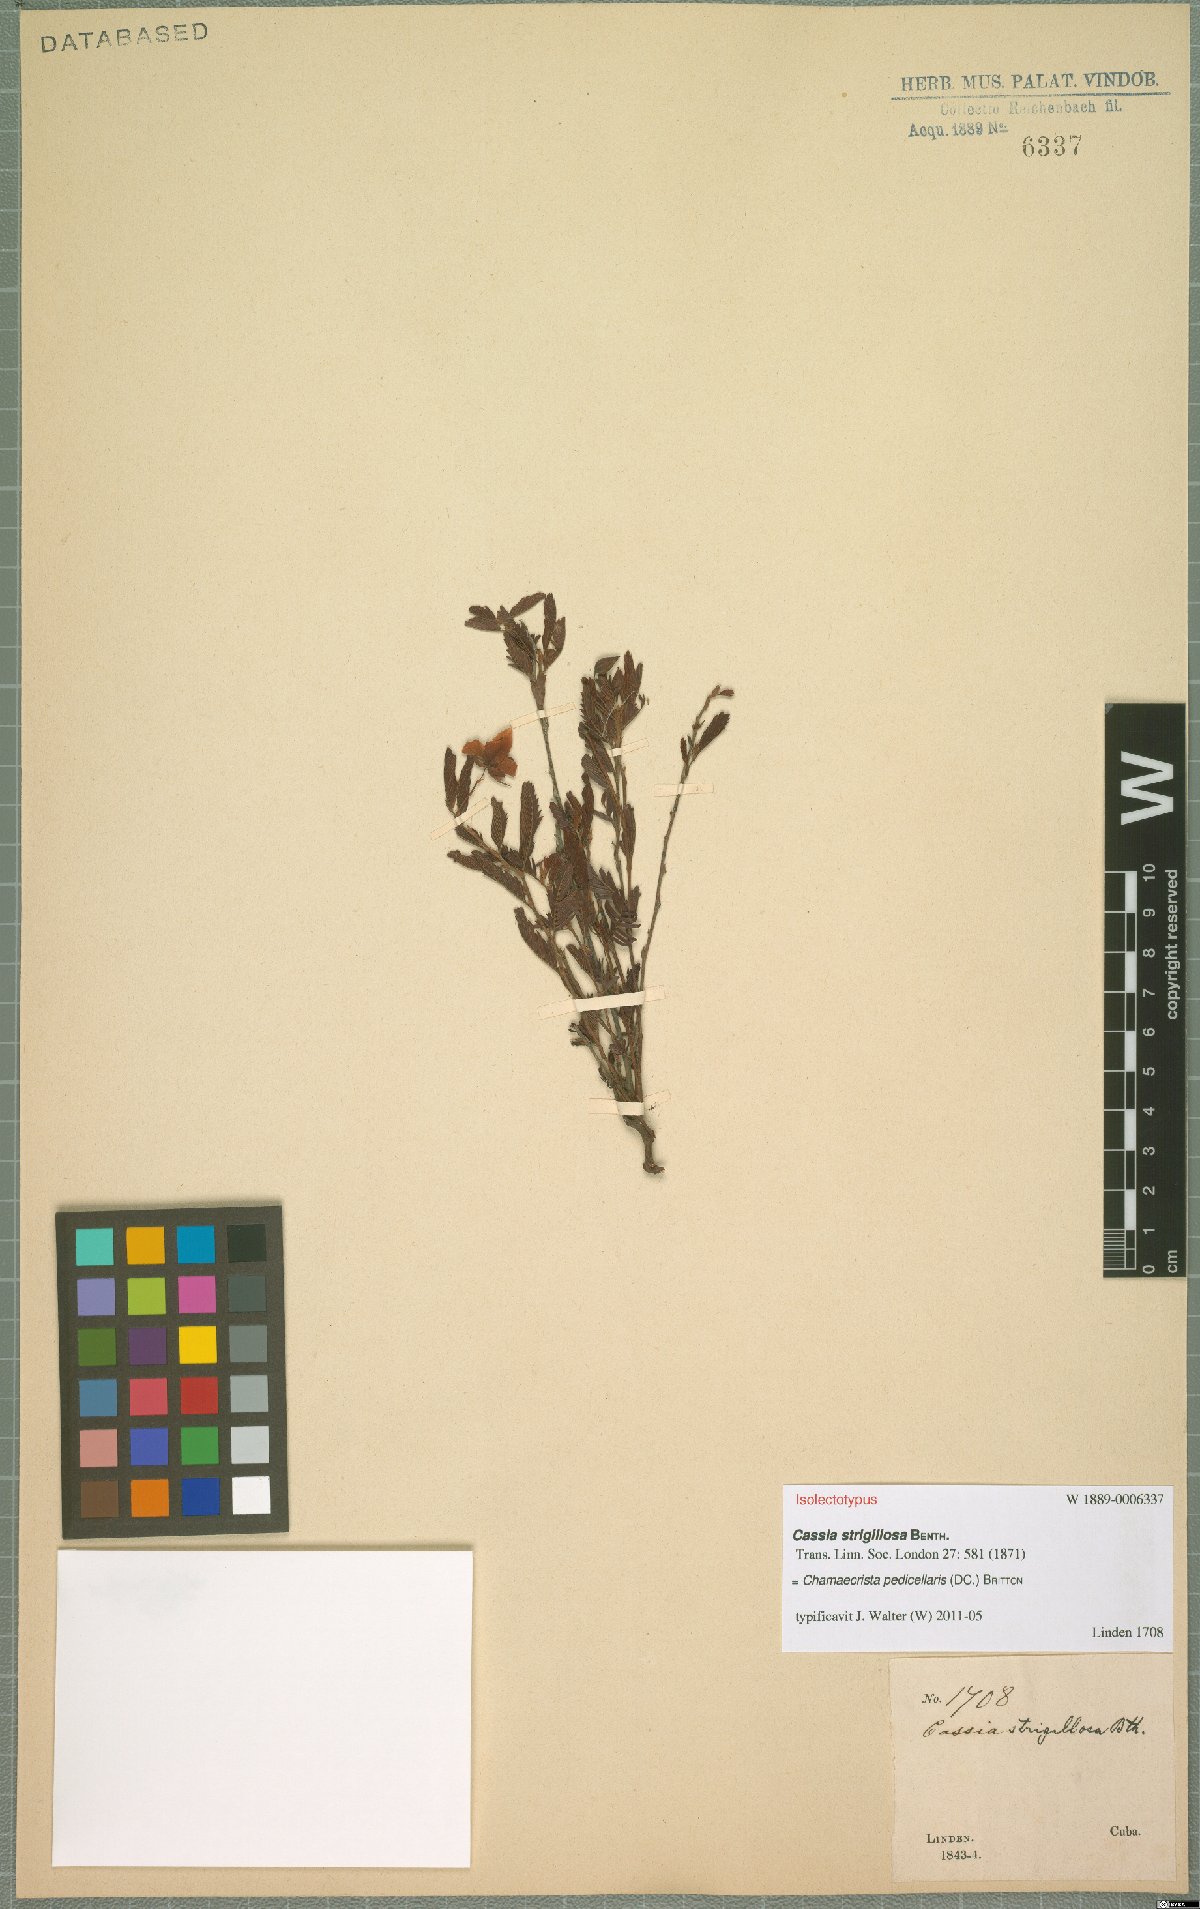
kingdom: Plantae
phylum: Tracheophyta
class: Magnoliopsida
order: Fabales
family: Fabaceae
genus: Chamaecrista
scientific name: Chamaecrista pedicellaris
